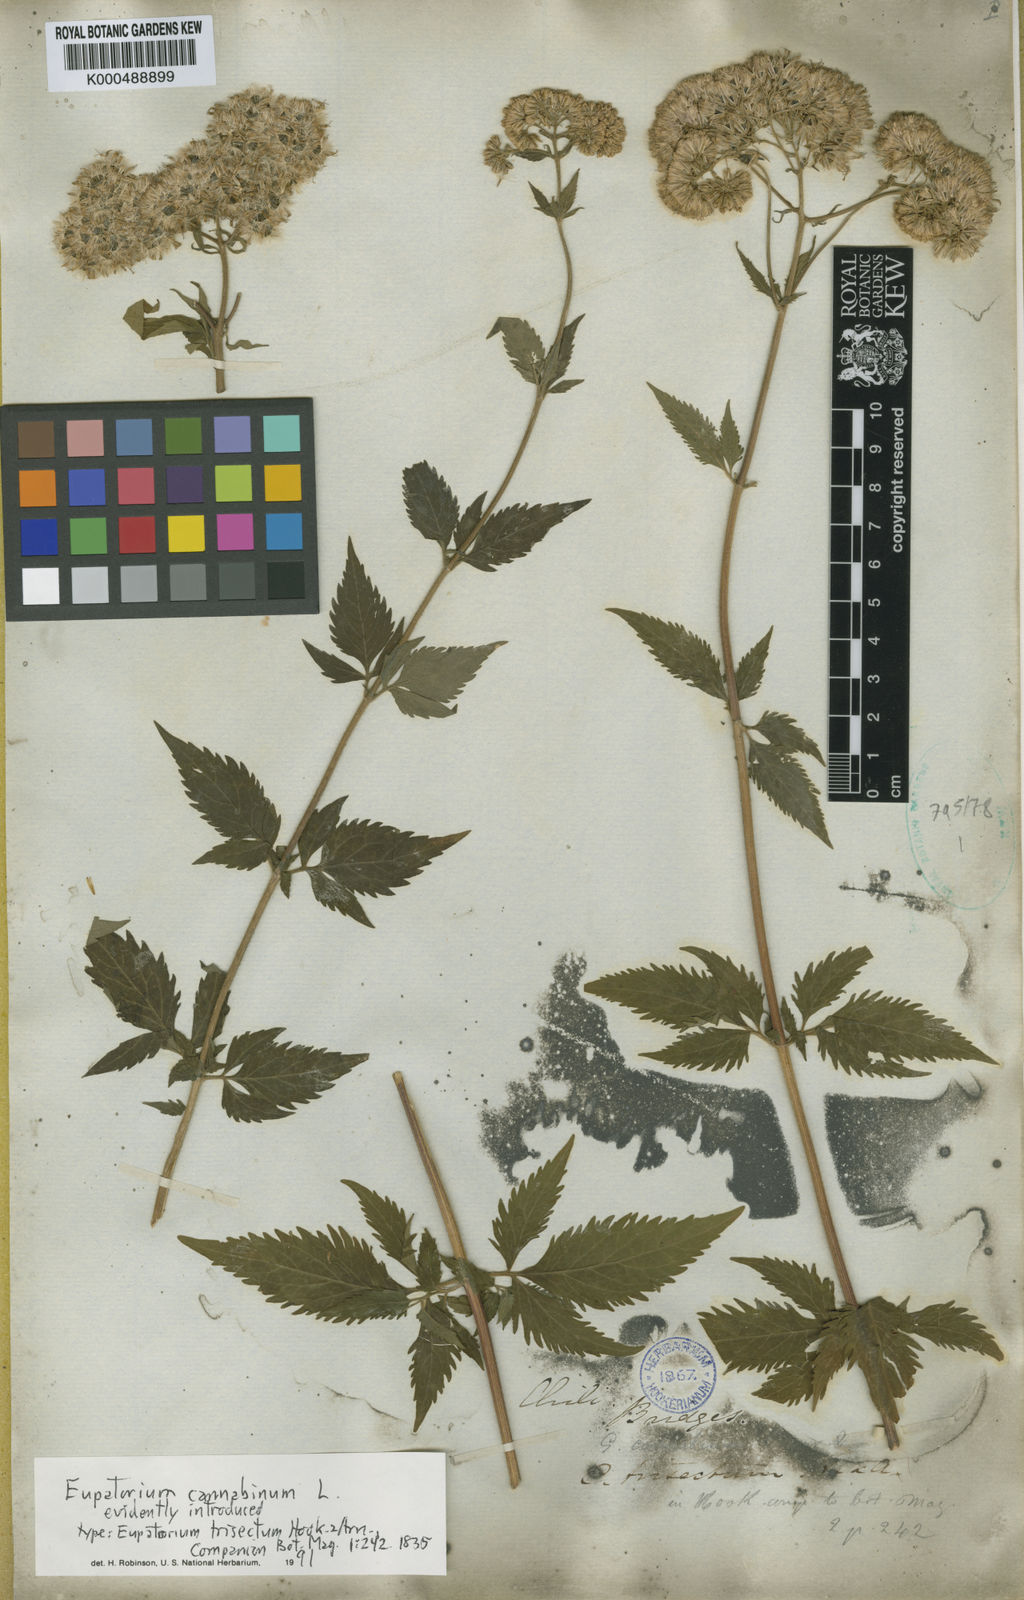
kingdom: Plantae
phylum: Tracheophyta
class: Magnoliopsida
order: Asterales
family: Asteraceae
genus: Eupatorium
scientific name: Eupatorium cannabinum
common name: Hemp-agrimony
